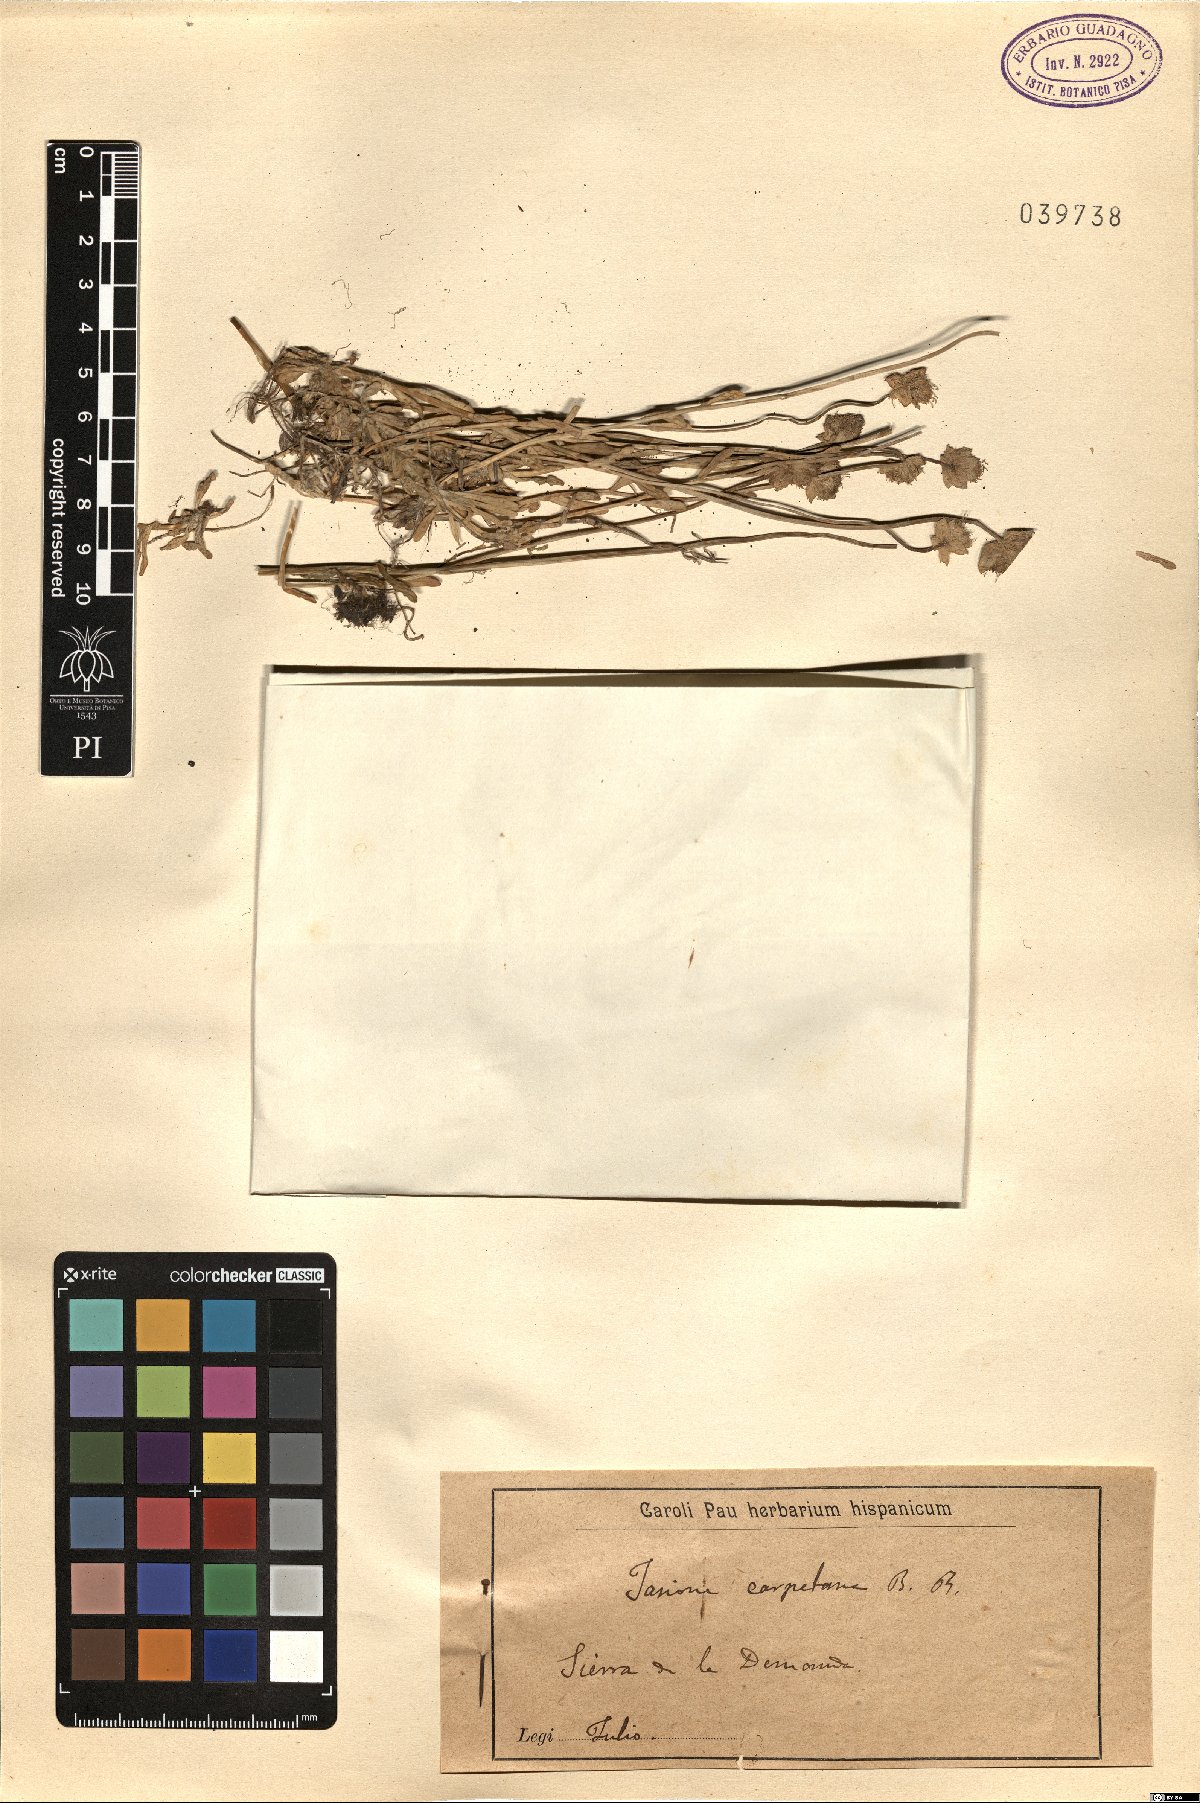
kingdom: Plantae
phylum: Tracheophyta
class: Magnoliopsida
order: Asterales
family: Campanulaceae
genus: Jasione
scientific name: Jasione laevis
